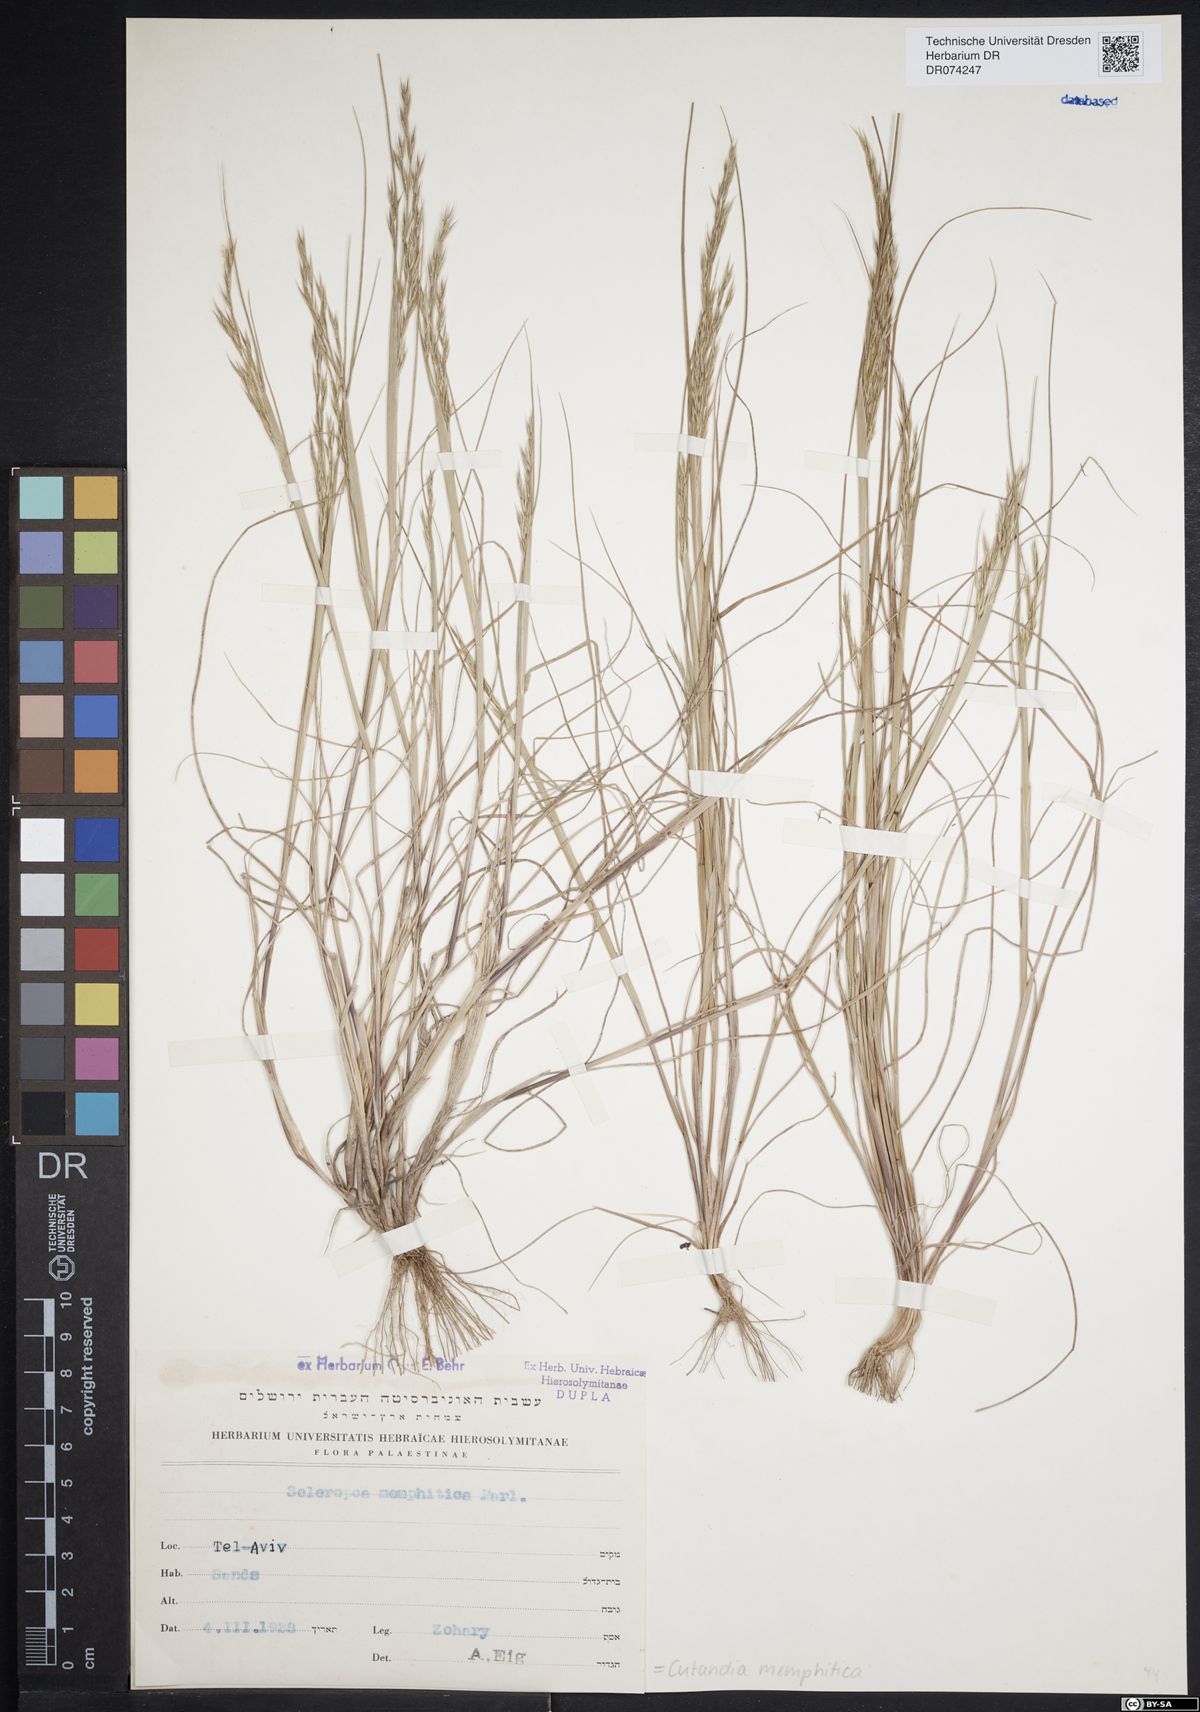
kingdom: Plantae
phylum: Tracheophyta
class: Liliopsida
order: Poales
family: Poaceae
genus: Cutandia
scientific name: Cutandia memphitica
